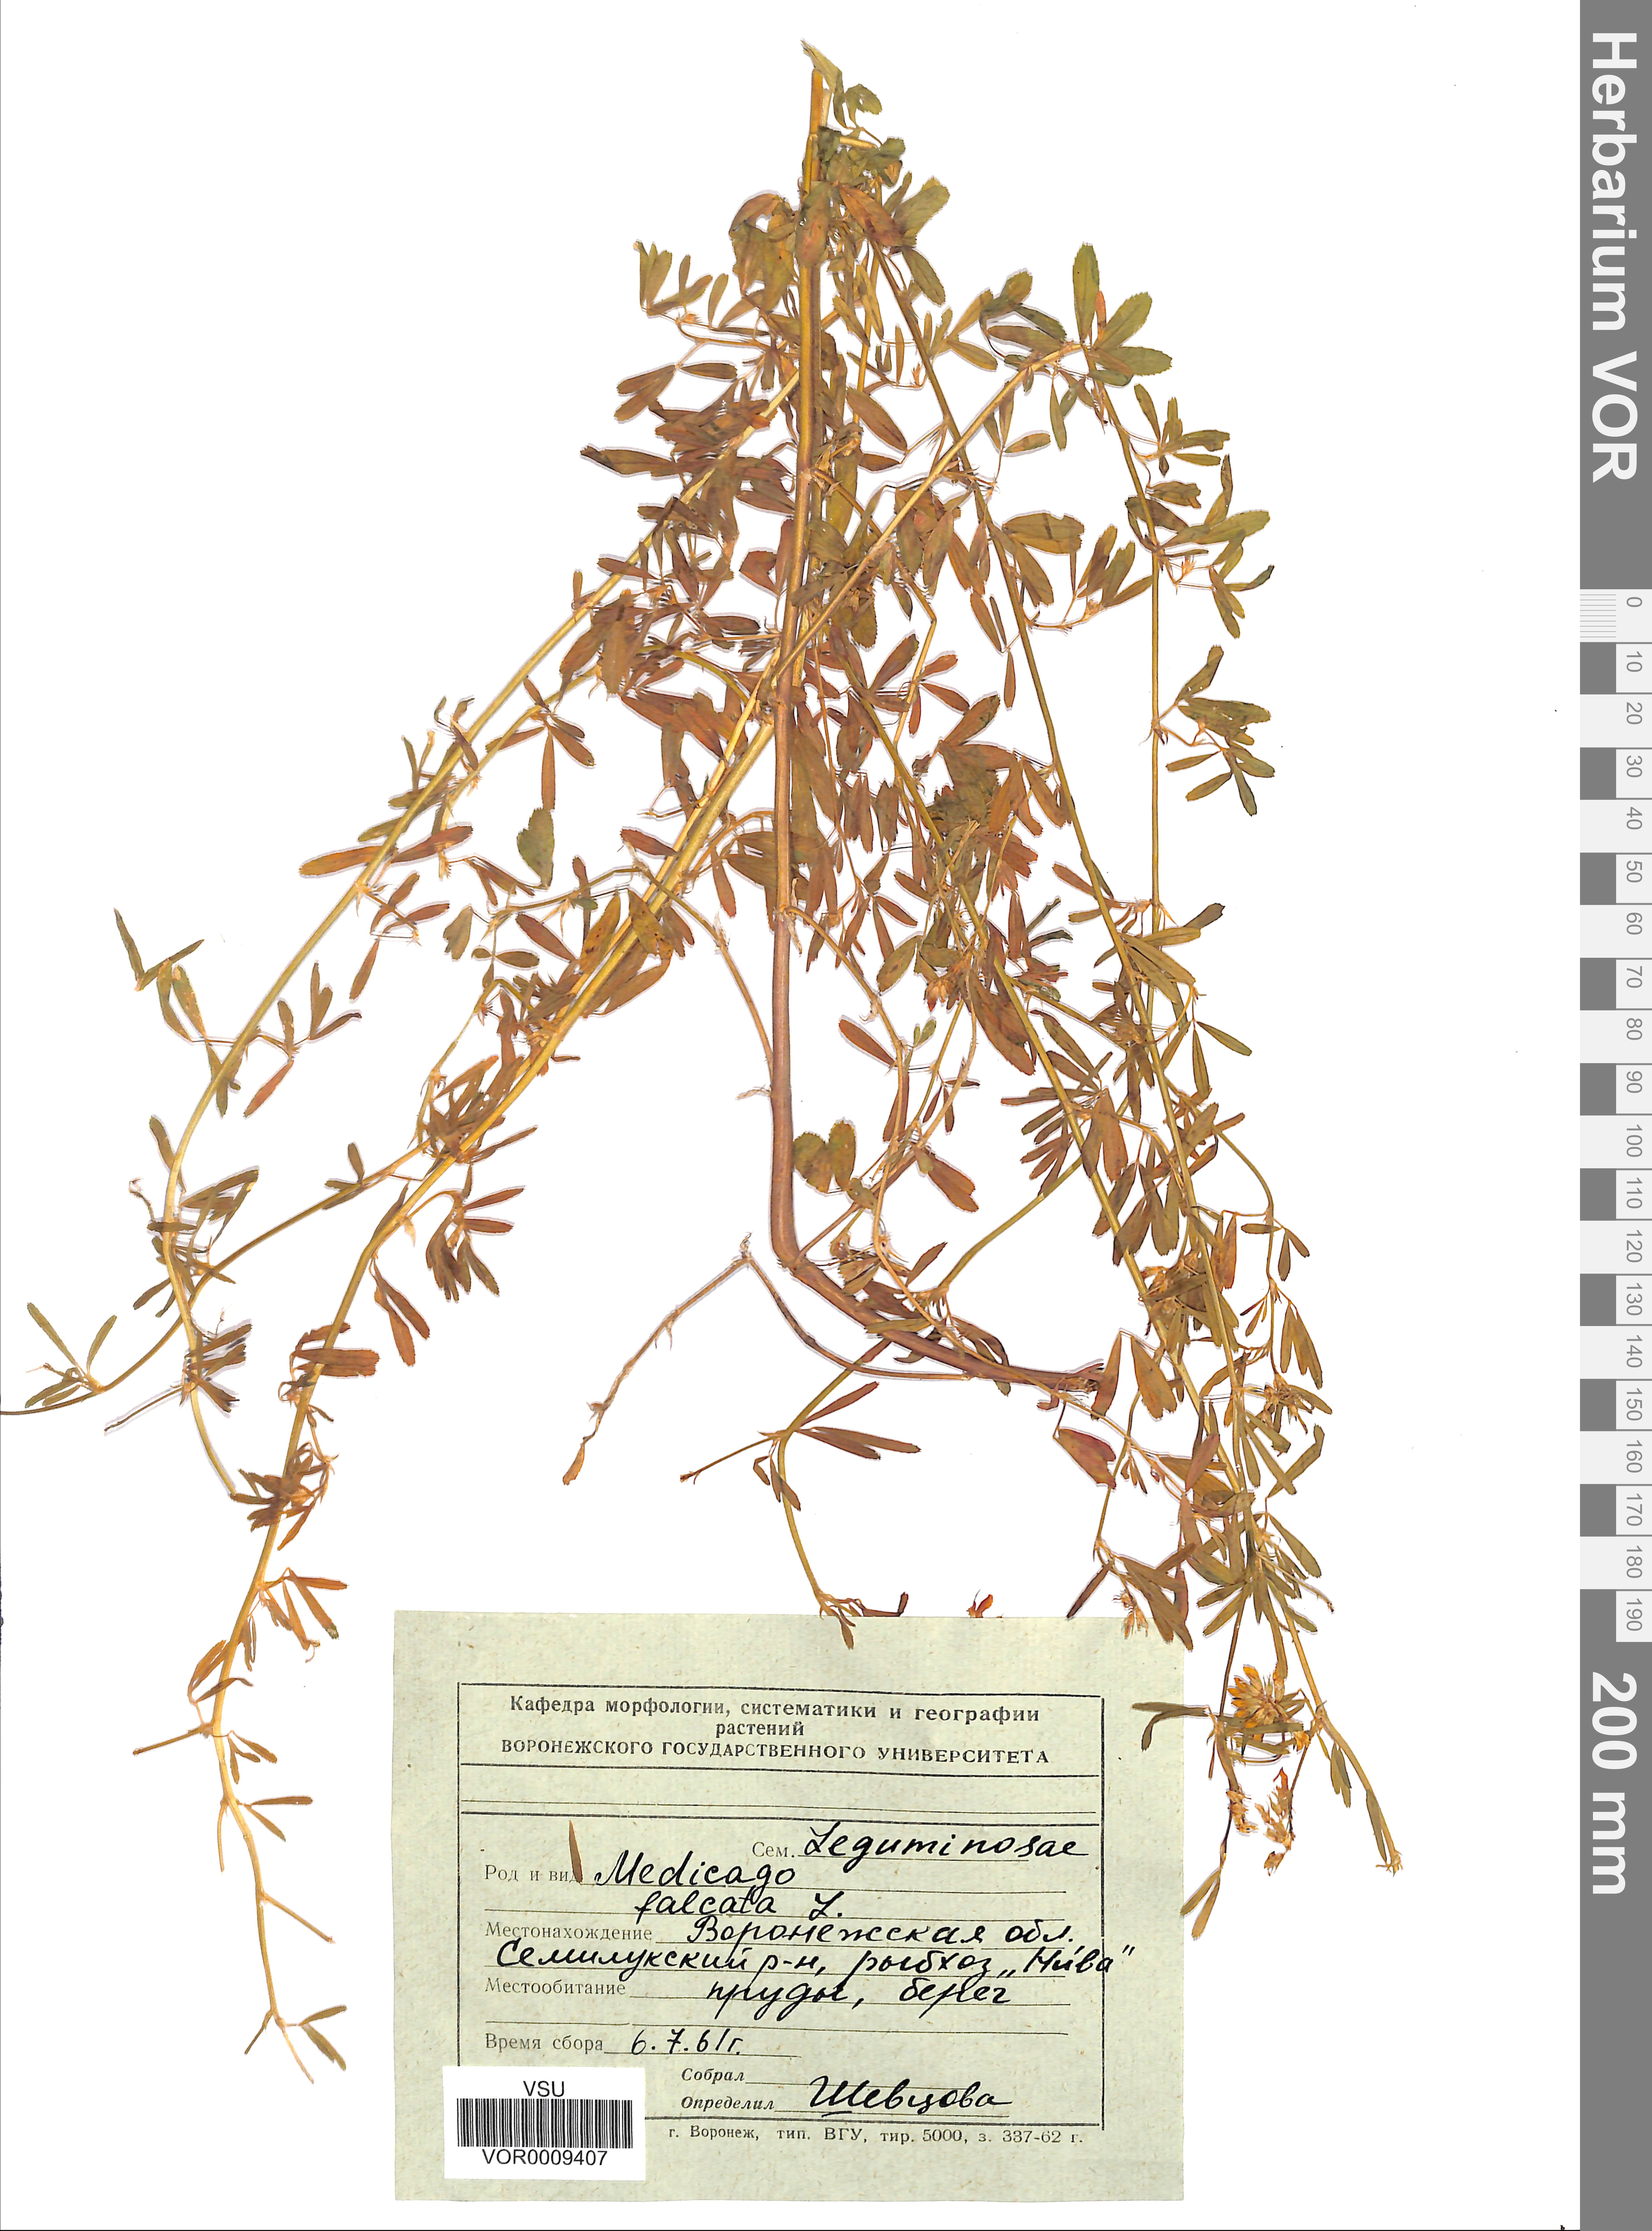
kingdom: Plantae
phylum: Tracheophyta
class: Magnoliopsida
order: Fabales
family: Fabaceae
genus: Medicago
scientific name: Medicago falcata
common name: Sickle medick
